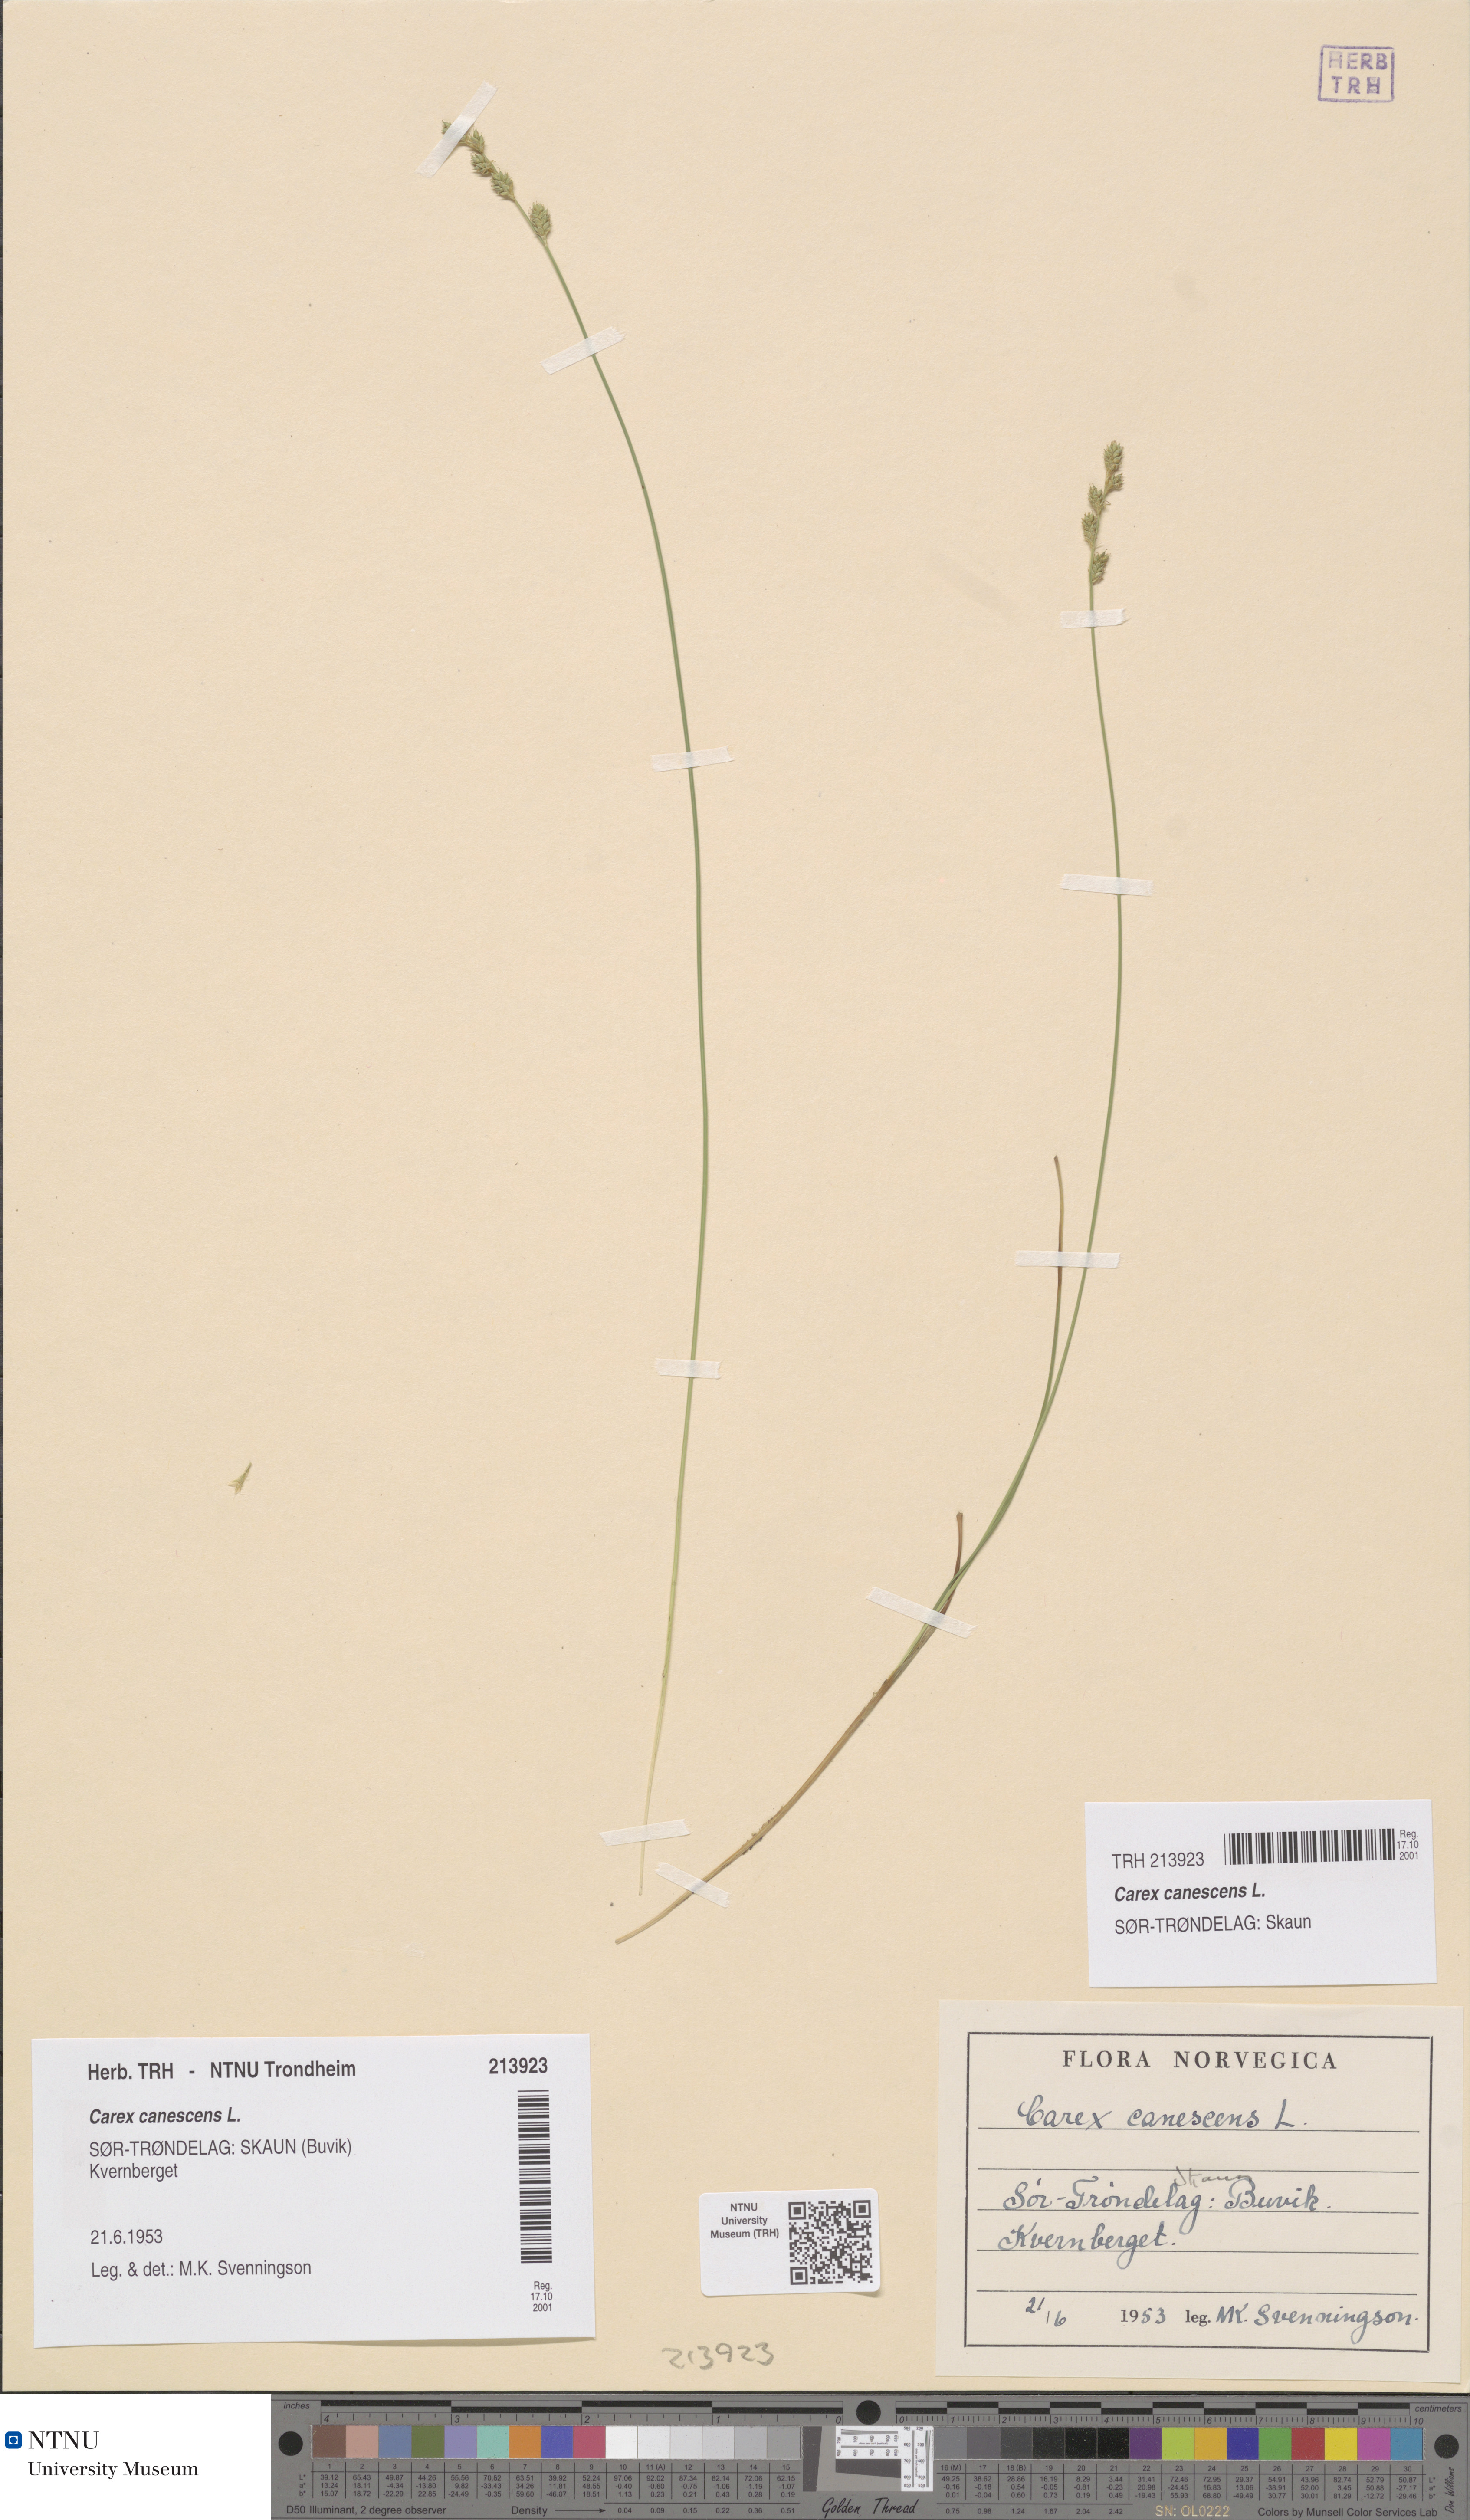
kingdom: Plantae
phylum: Tracheophyta
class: Liliopsida
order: Poales
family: Cyperaceae
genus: Carex
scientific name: Carex canescens
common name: White sedge
